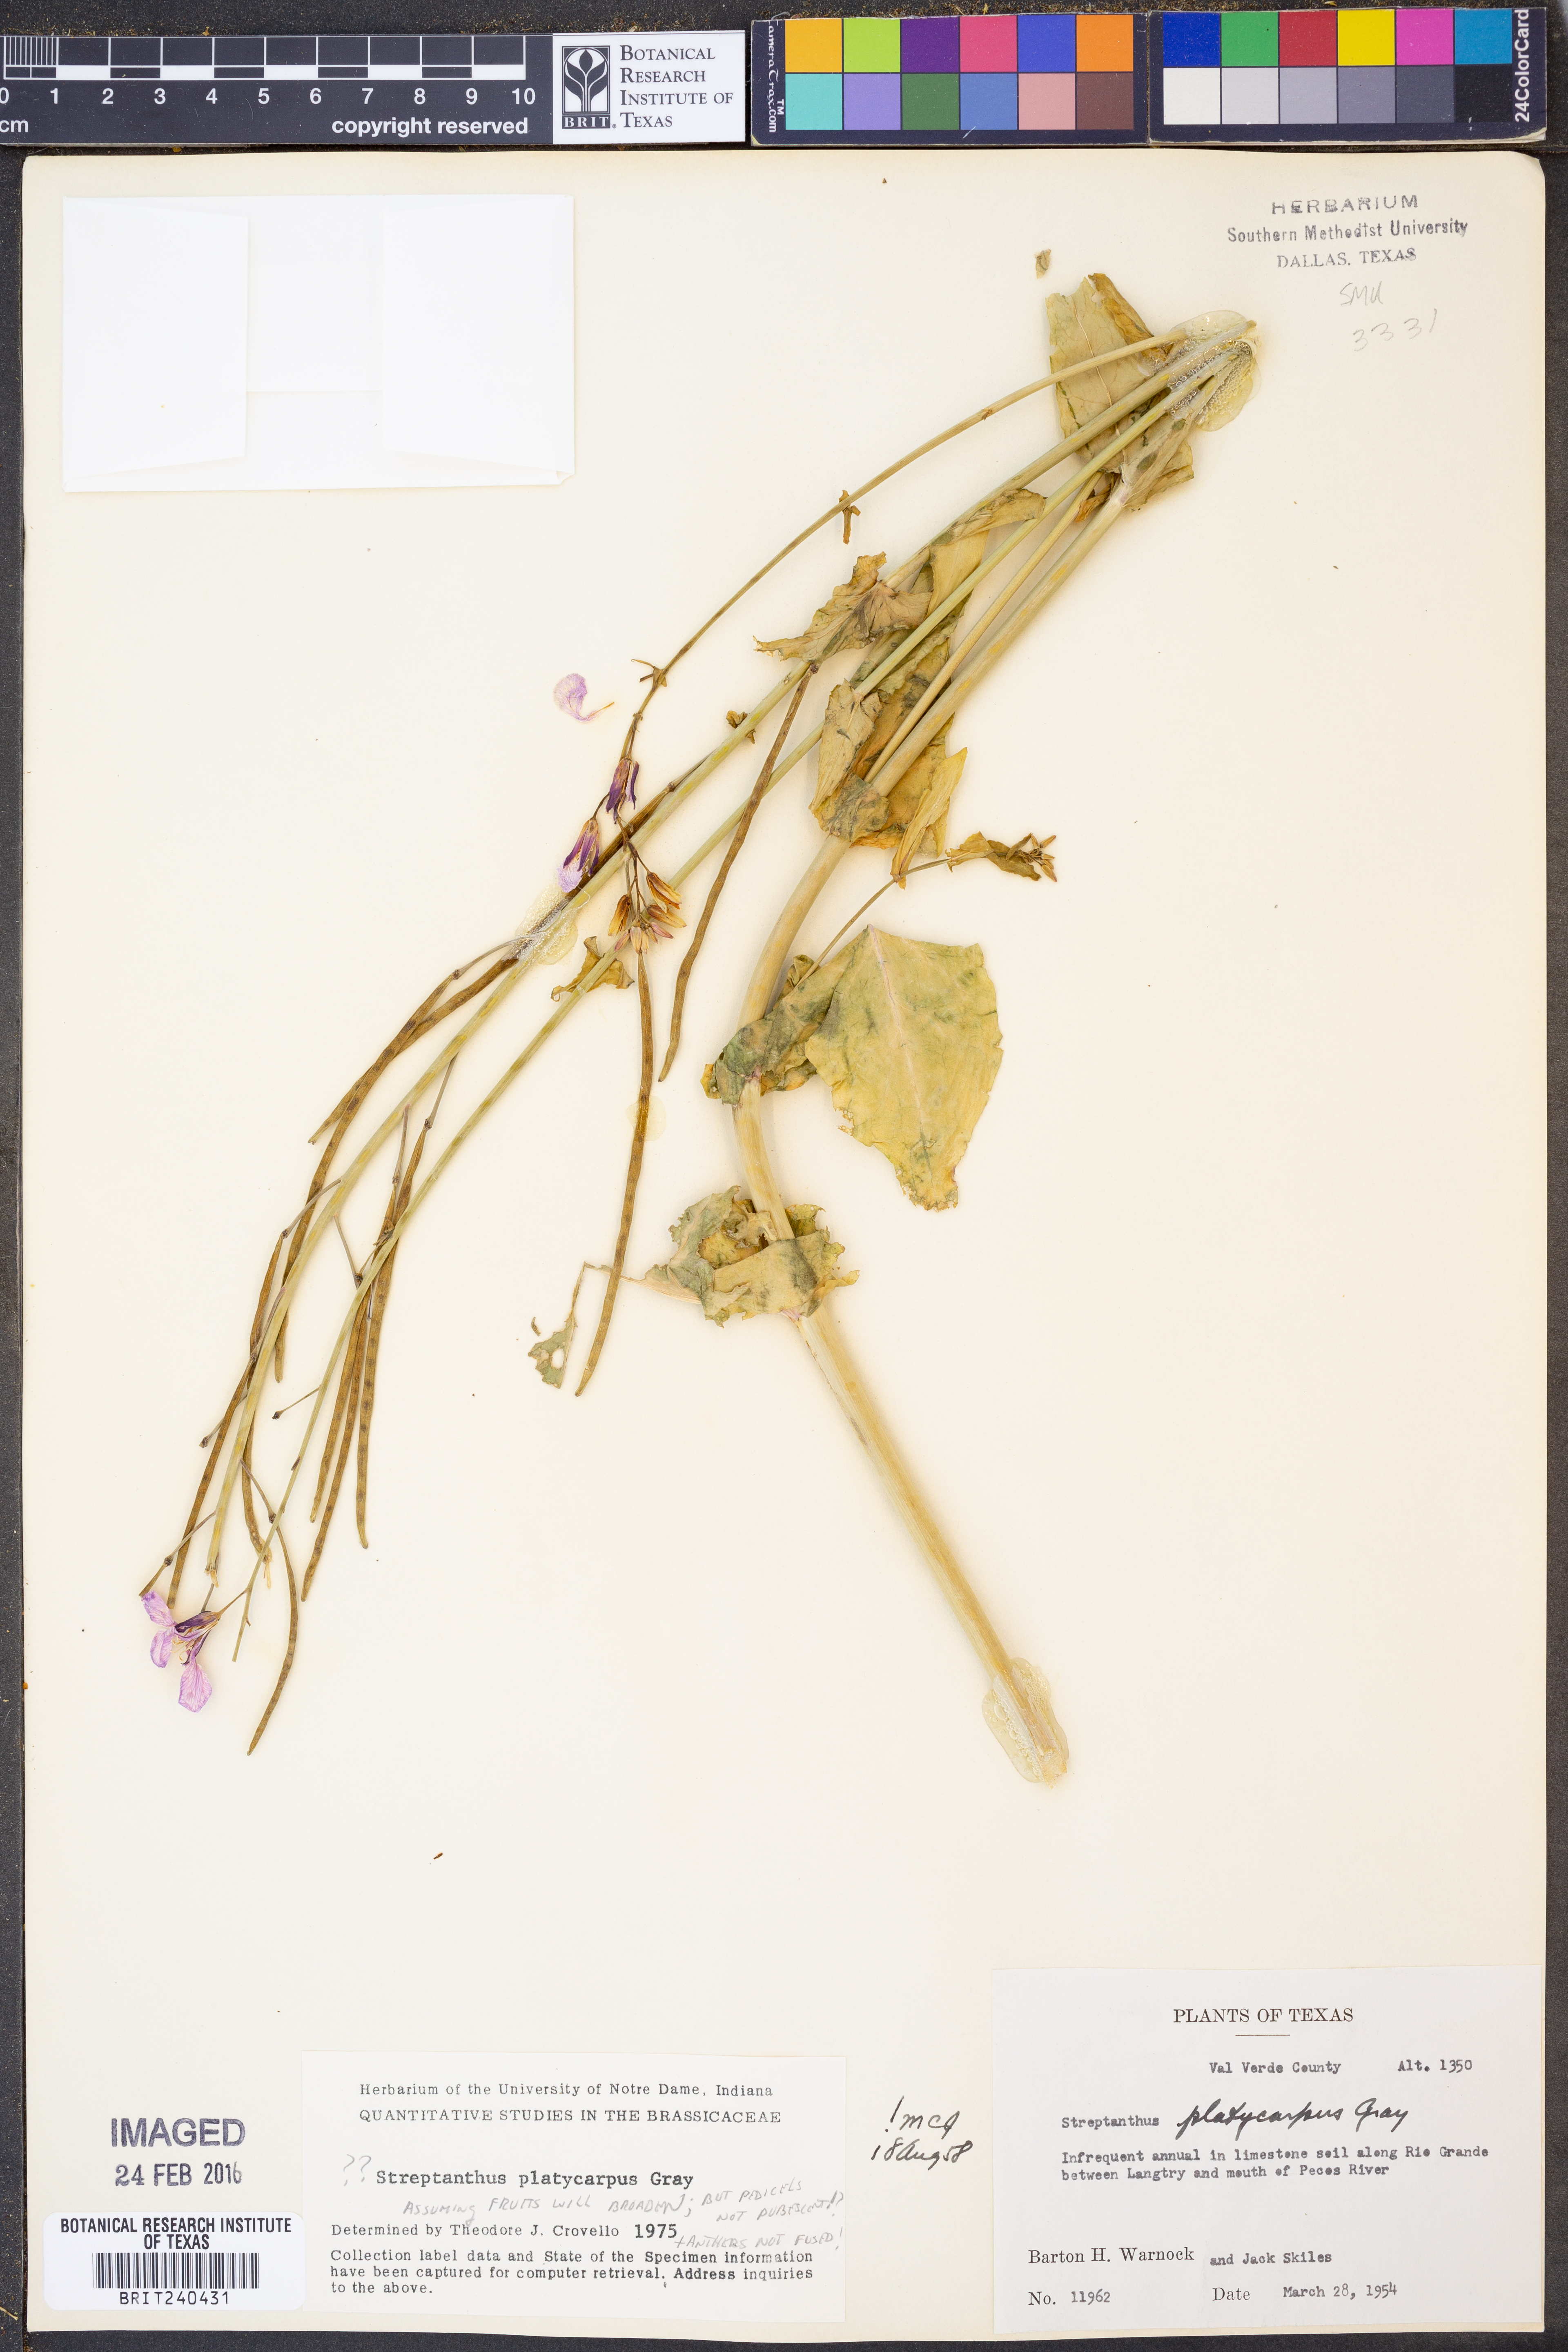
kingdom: Plantae
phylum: Tracheophyta
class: Magnoliopsida
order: Brassicales
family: Brassicaceae
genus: Streptanthus
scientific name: Streptanthus platycarpus
